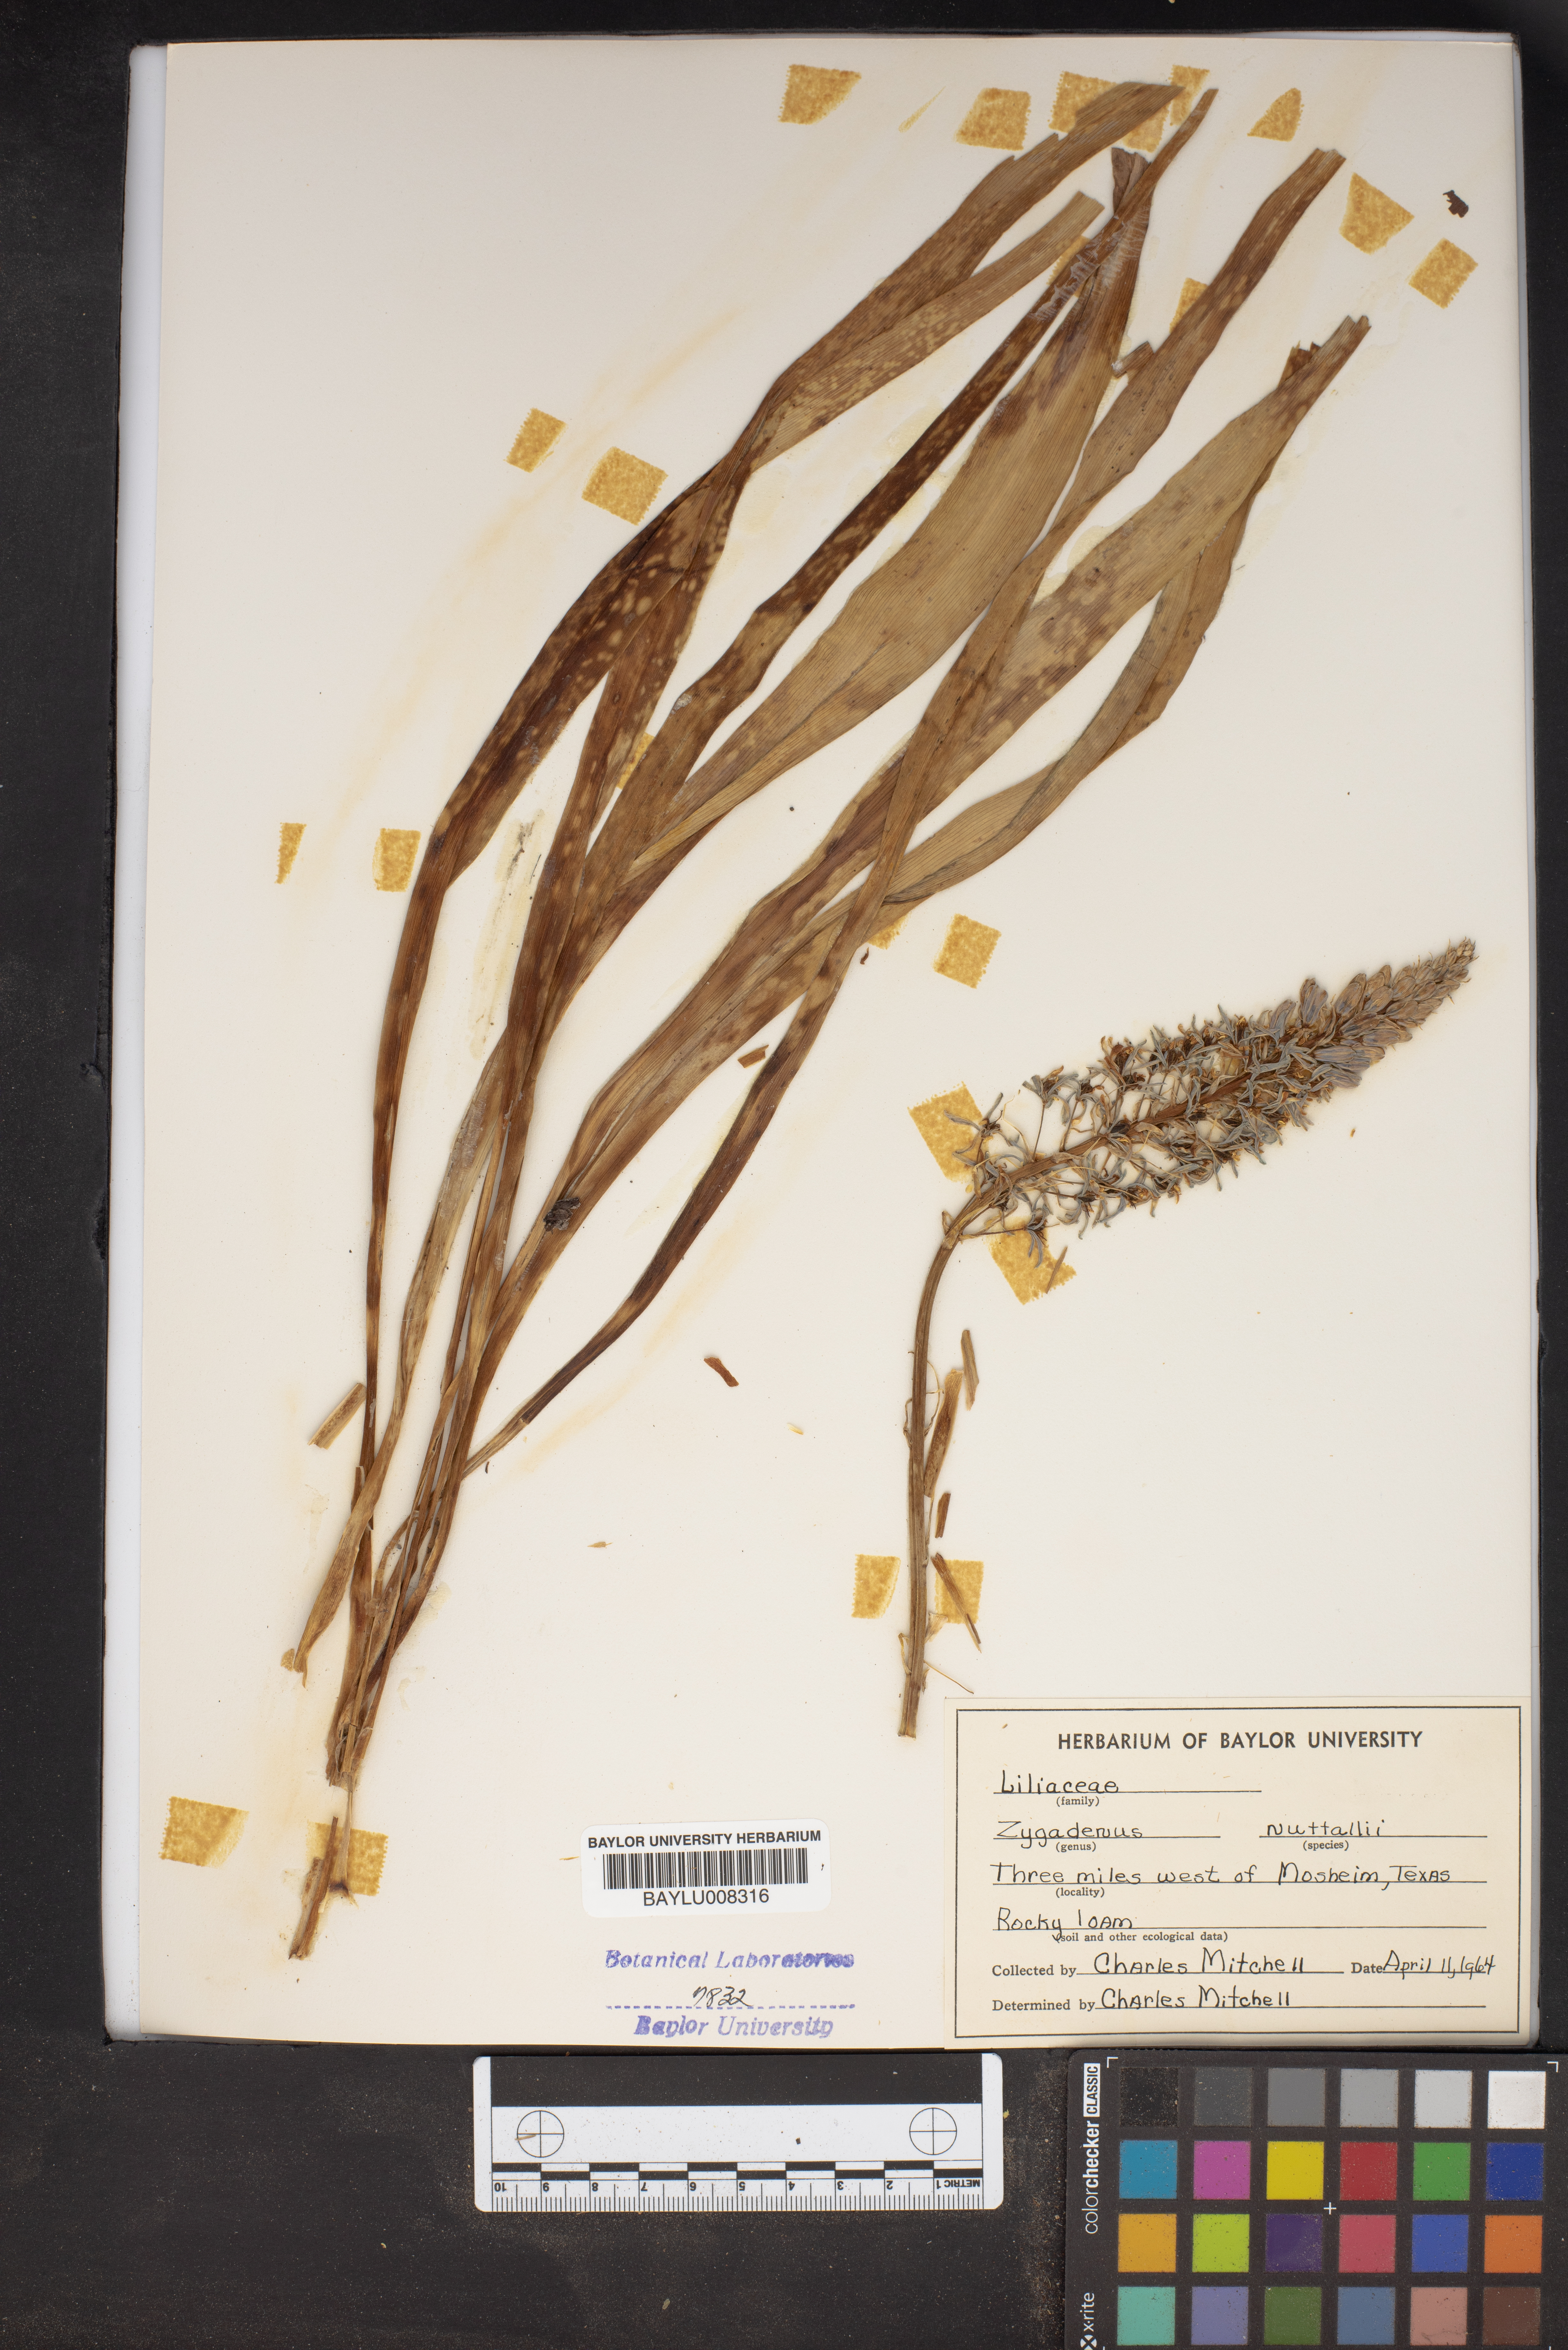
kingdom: Plantae
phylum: Tracheophyta
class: Liliopsida
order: Liliales
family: Melanthiaceae
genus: Toxicoscordion
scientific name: Toxicoscordion nuttallii
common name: Poison sego
